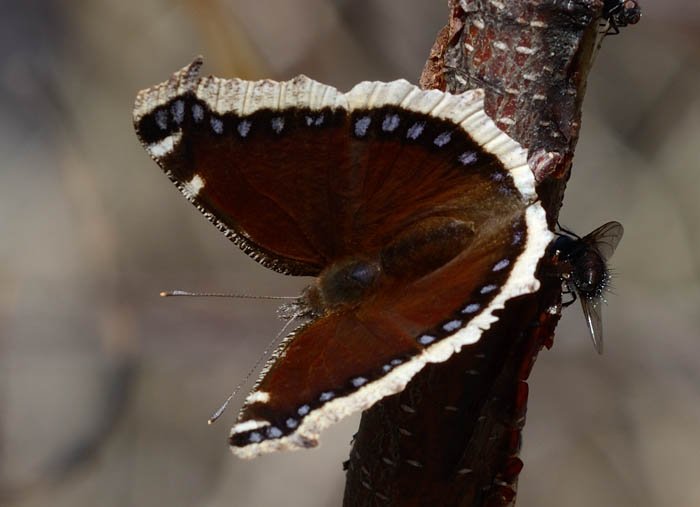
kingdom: Animalia
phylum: Arthropoda
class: Insecta
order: Lepidoptera
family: Nymphalidae
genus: Nymphalis
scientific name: Nymphalis antiopa
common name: Mourning Cloak
